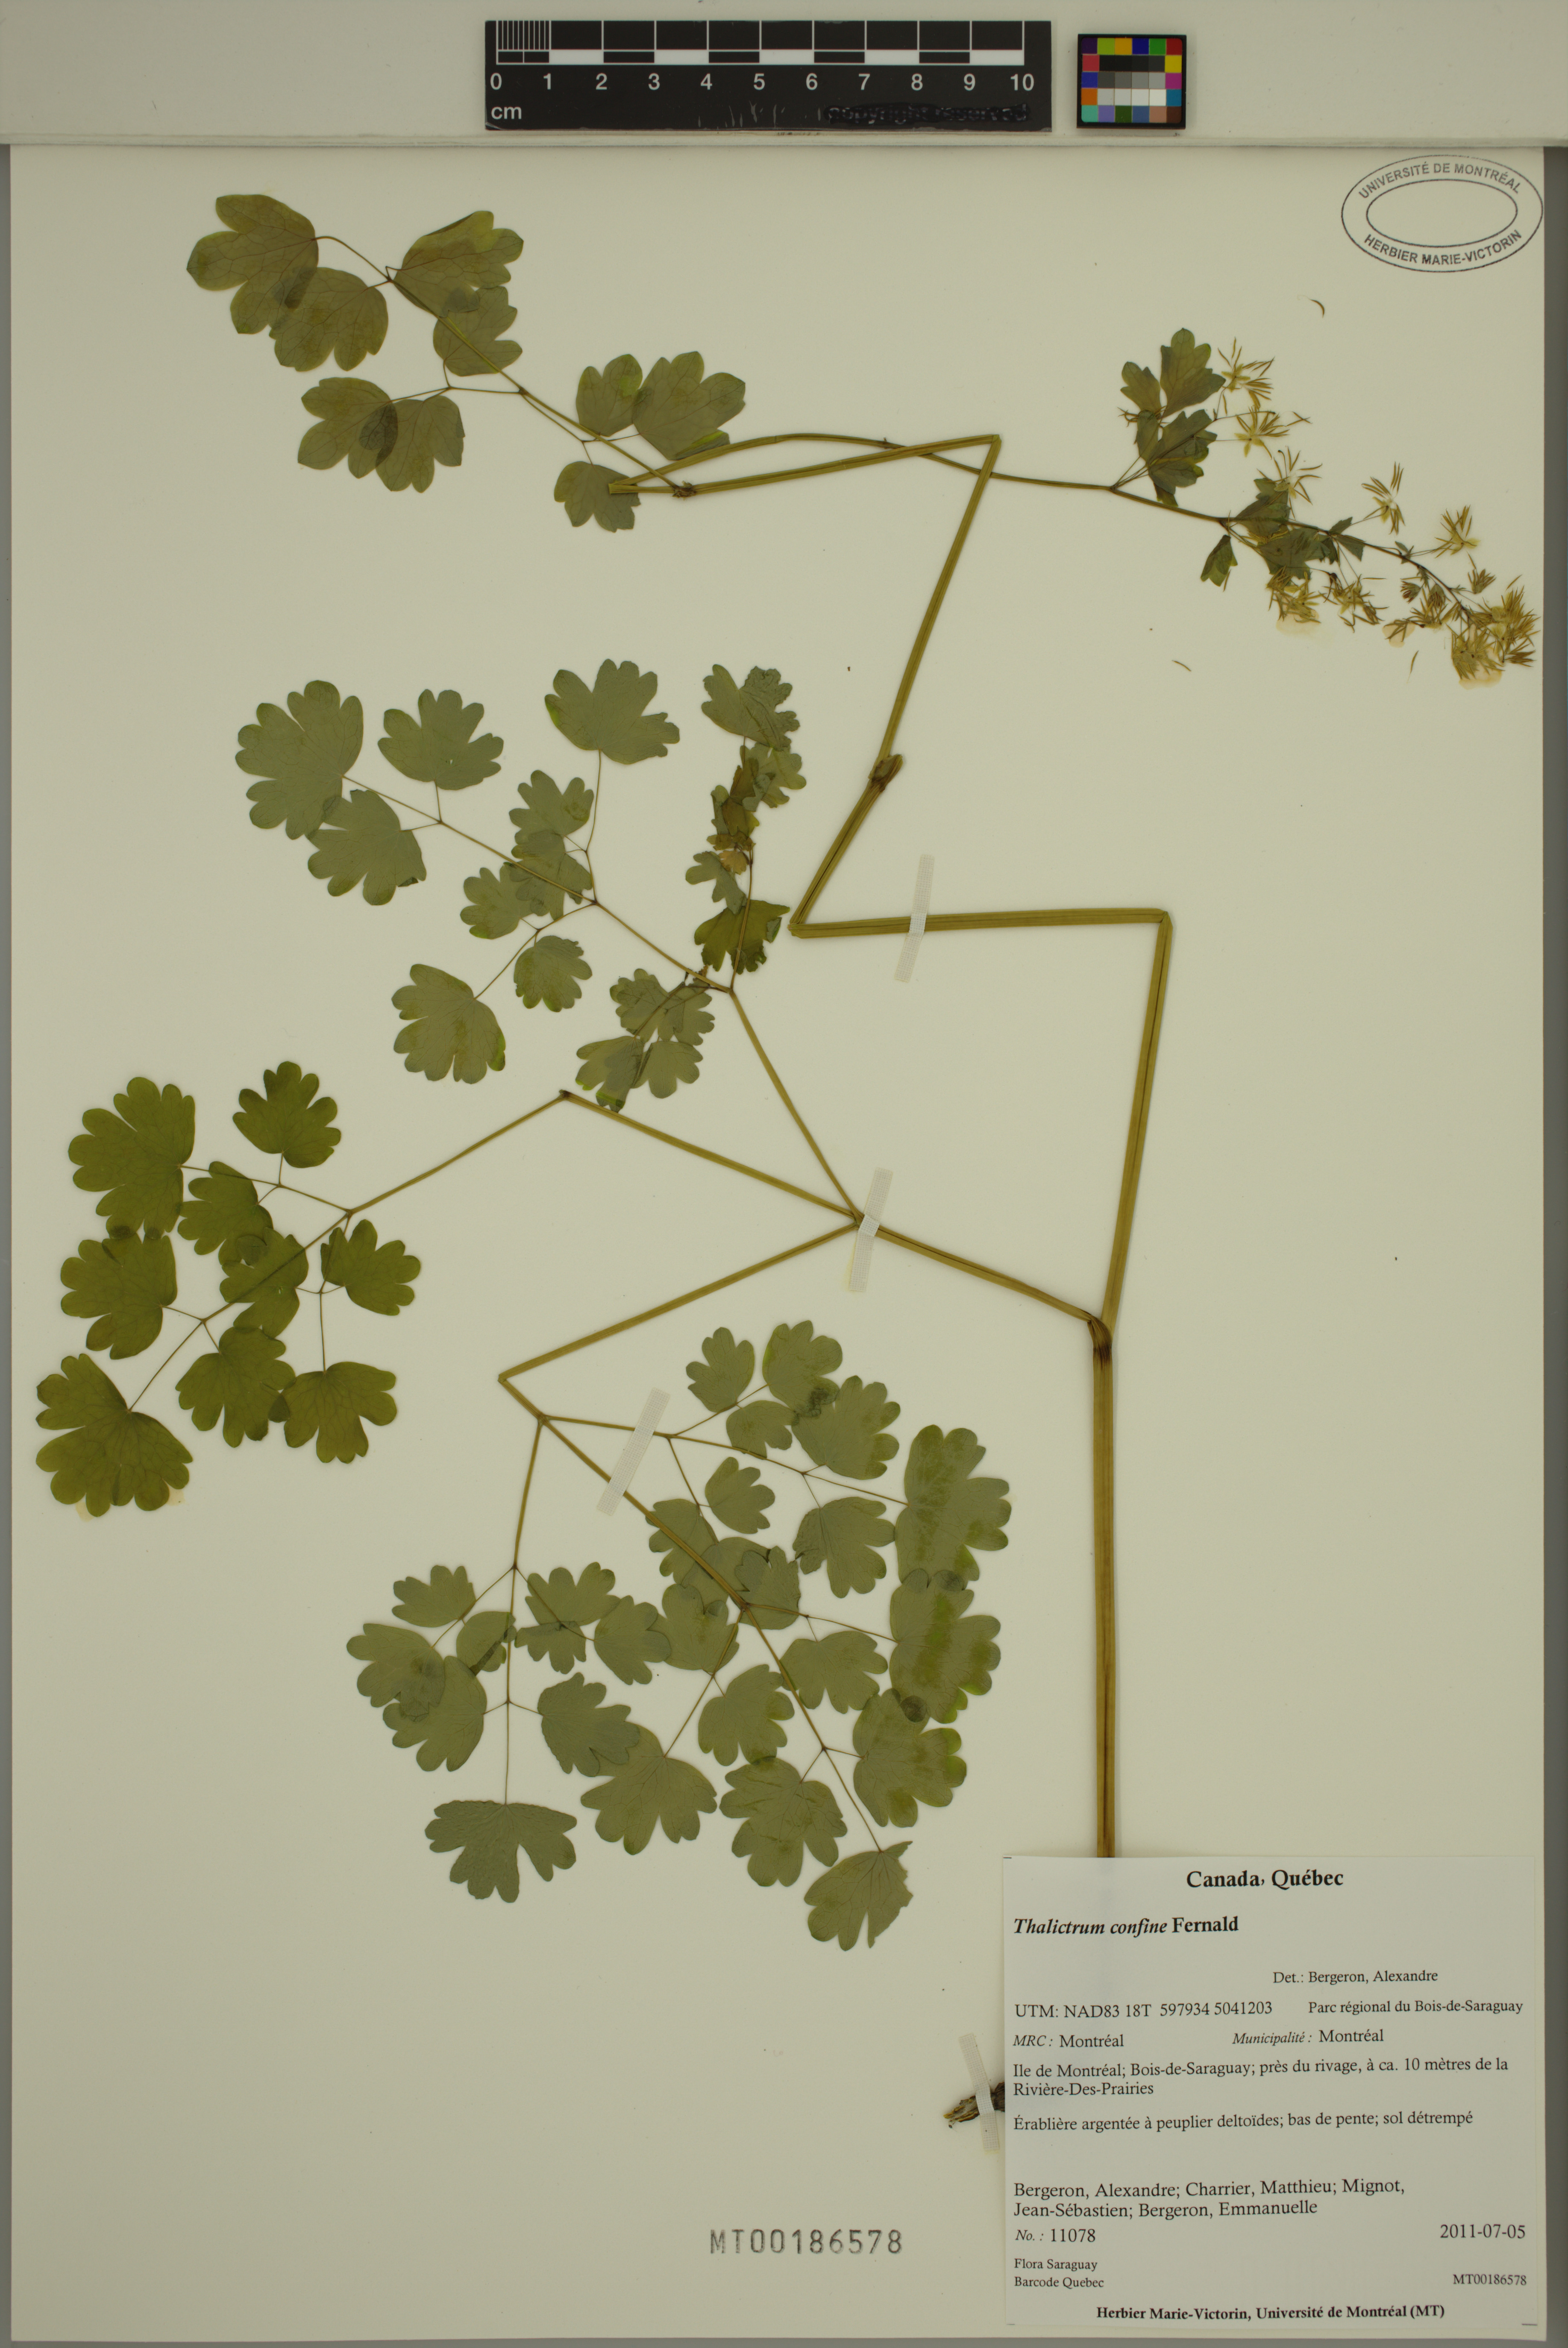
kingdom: Plantae
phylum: Tracheophyta
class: Magnoliopsida
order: Ranunculales
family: Ranunculaceae
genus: Thalictrum
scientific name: Thalictrum venulosum
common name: Early meadow-rue
